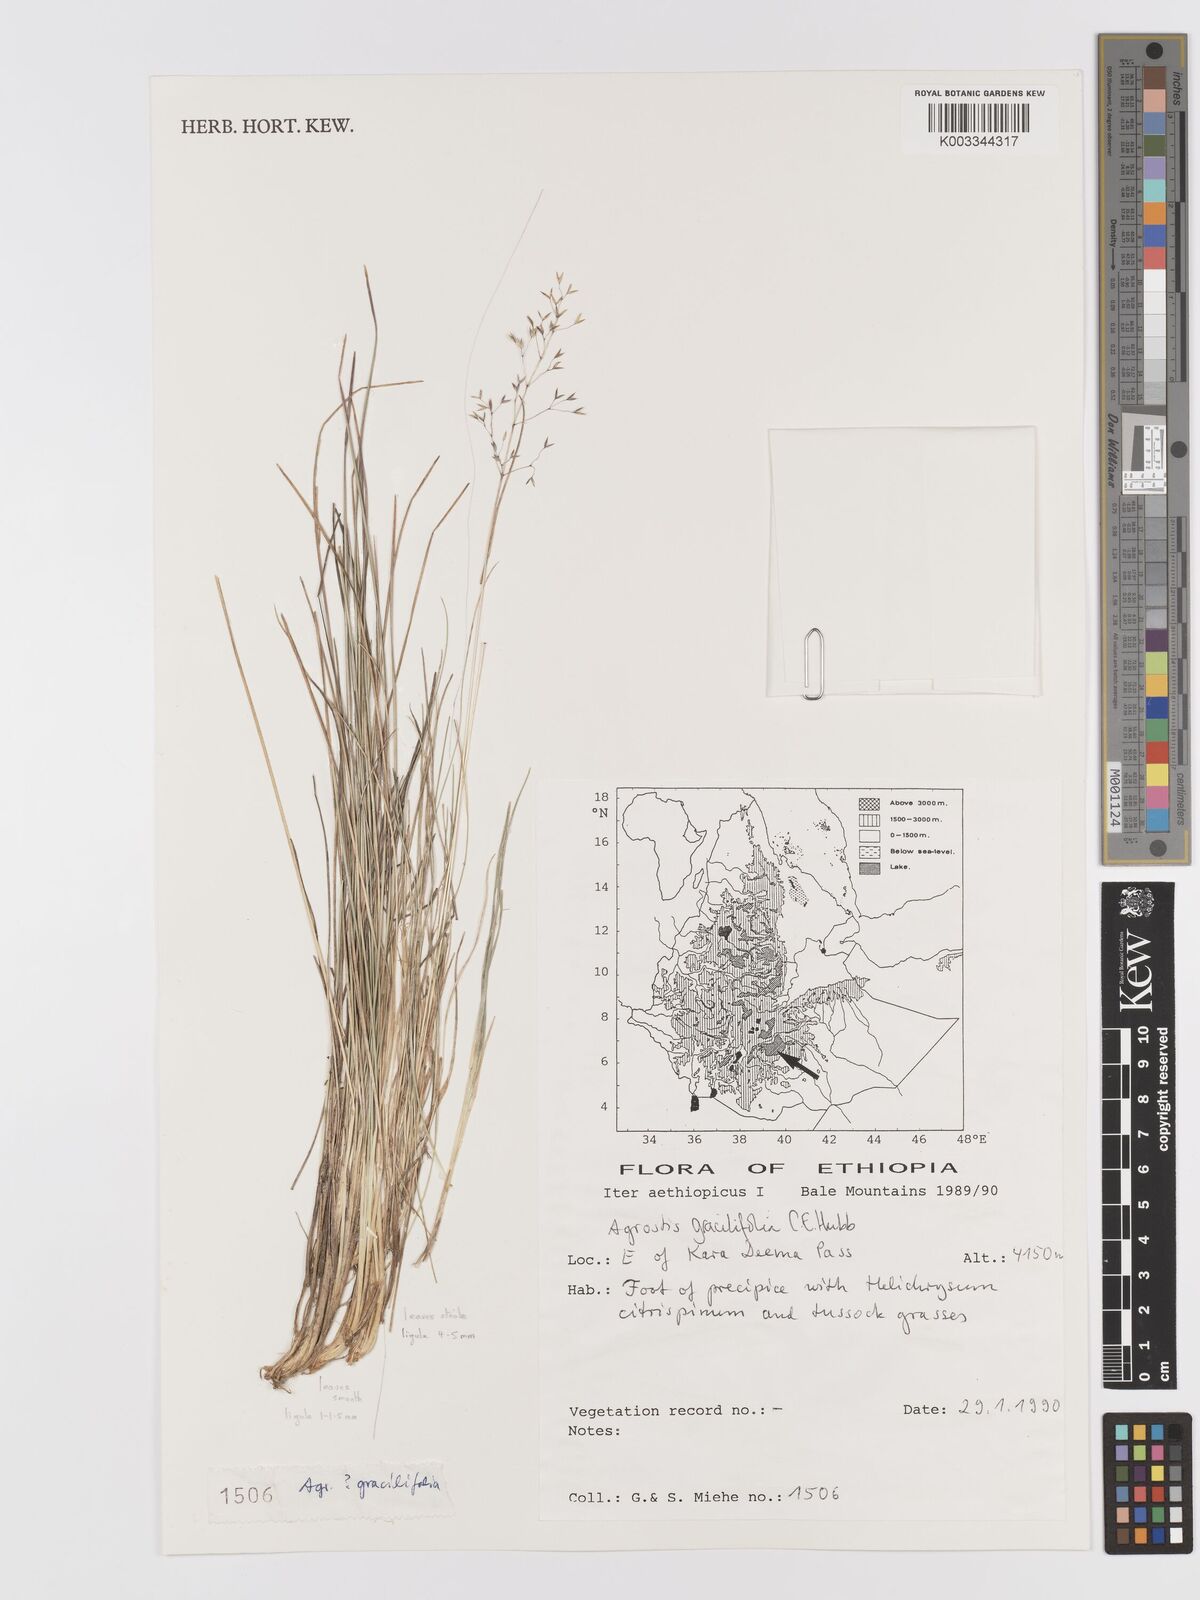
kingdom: Plantae
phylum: Tracheophyta
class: Liliopsida
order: Poales
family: Poaceae
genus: Agrostis
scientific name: Agrostis gracilifolia
